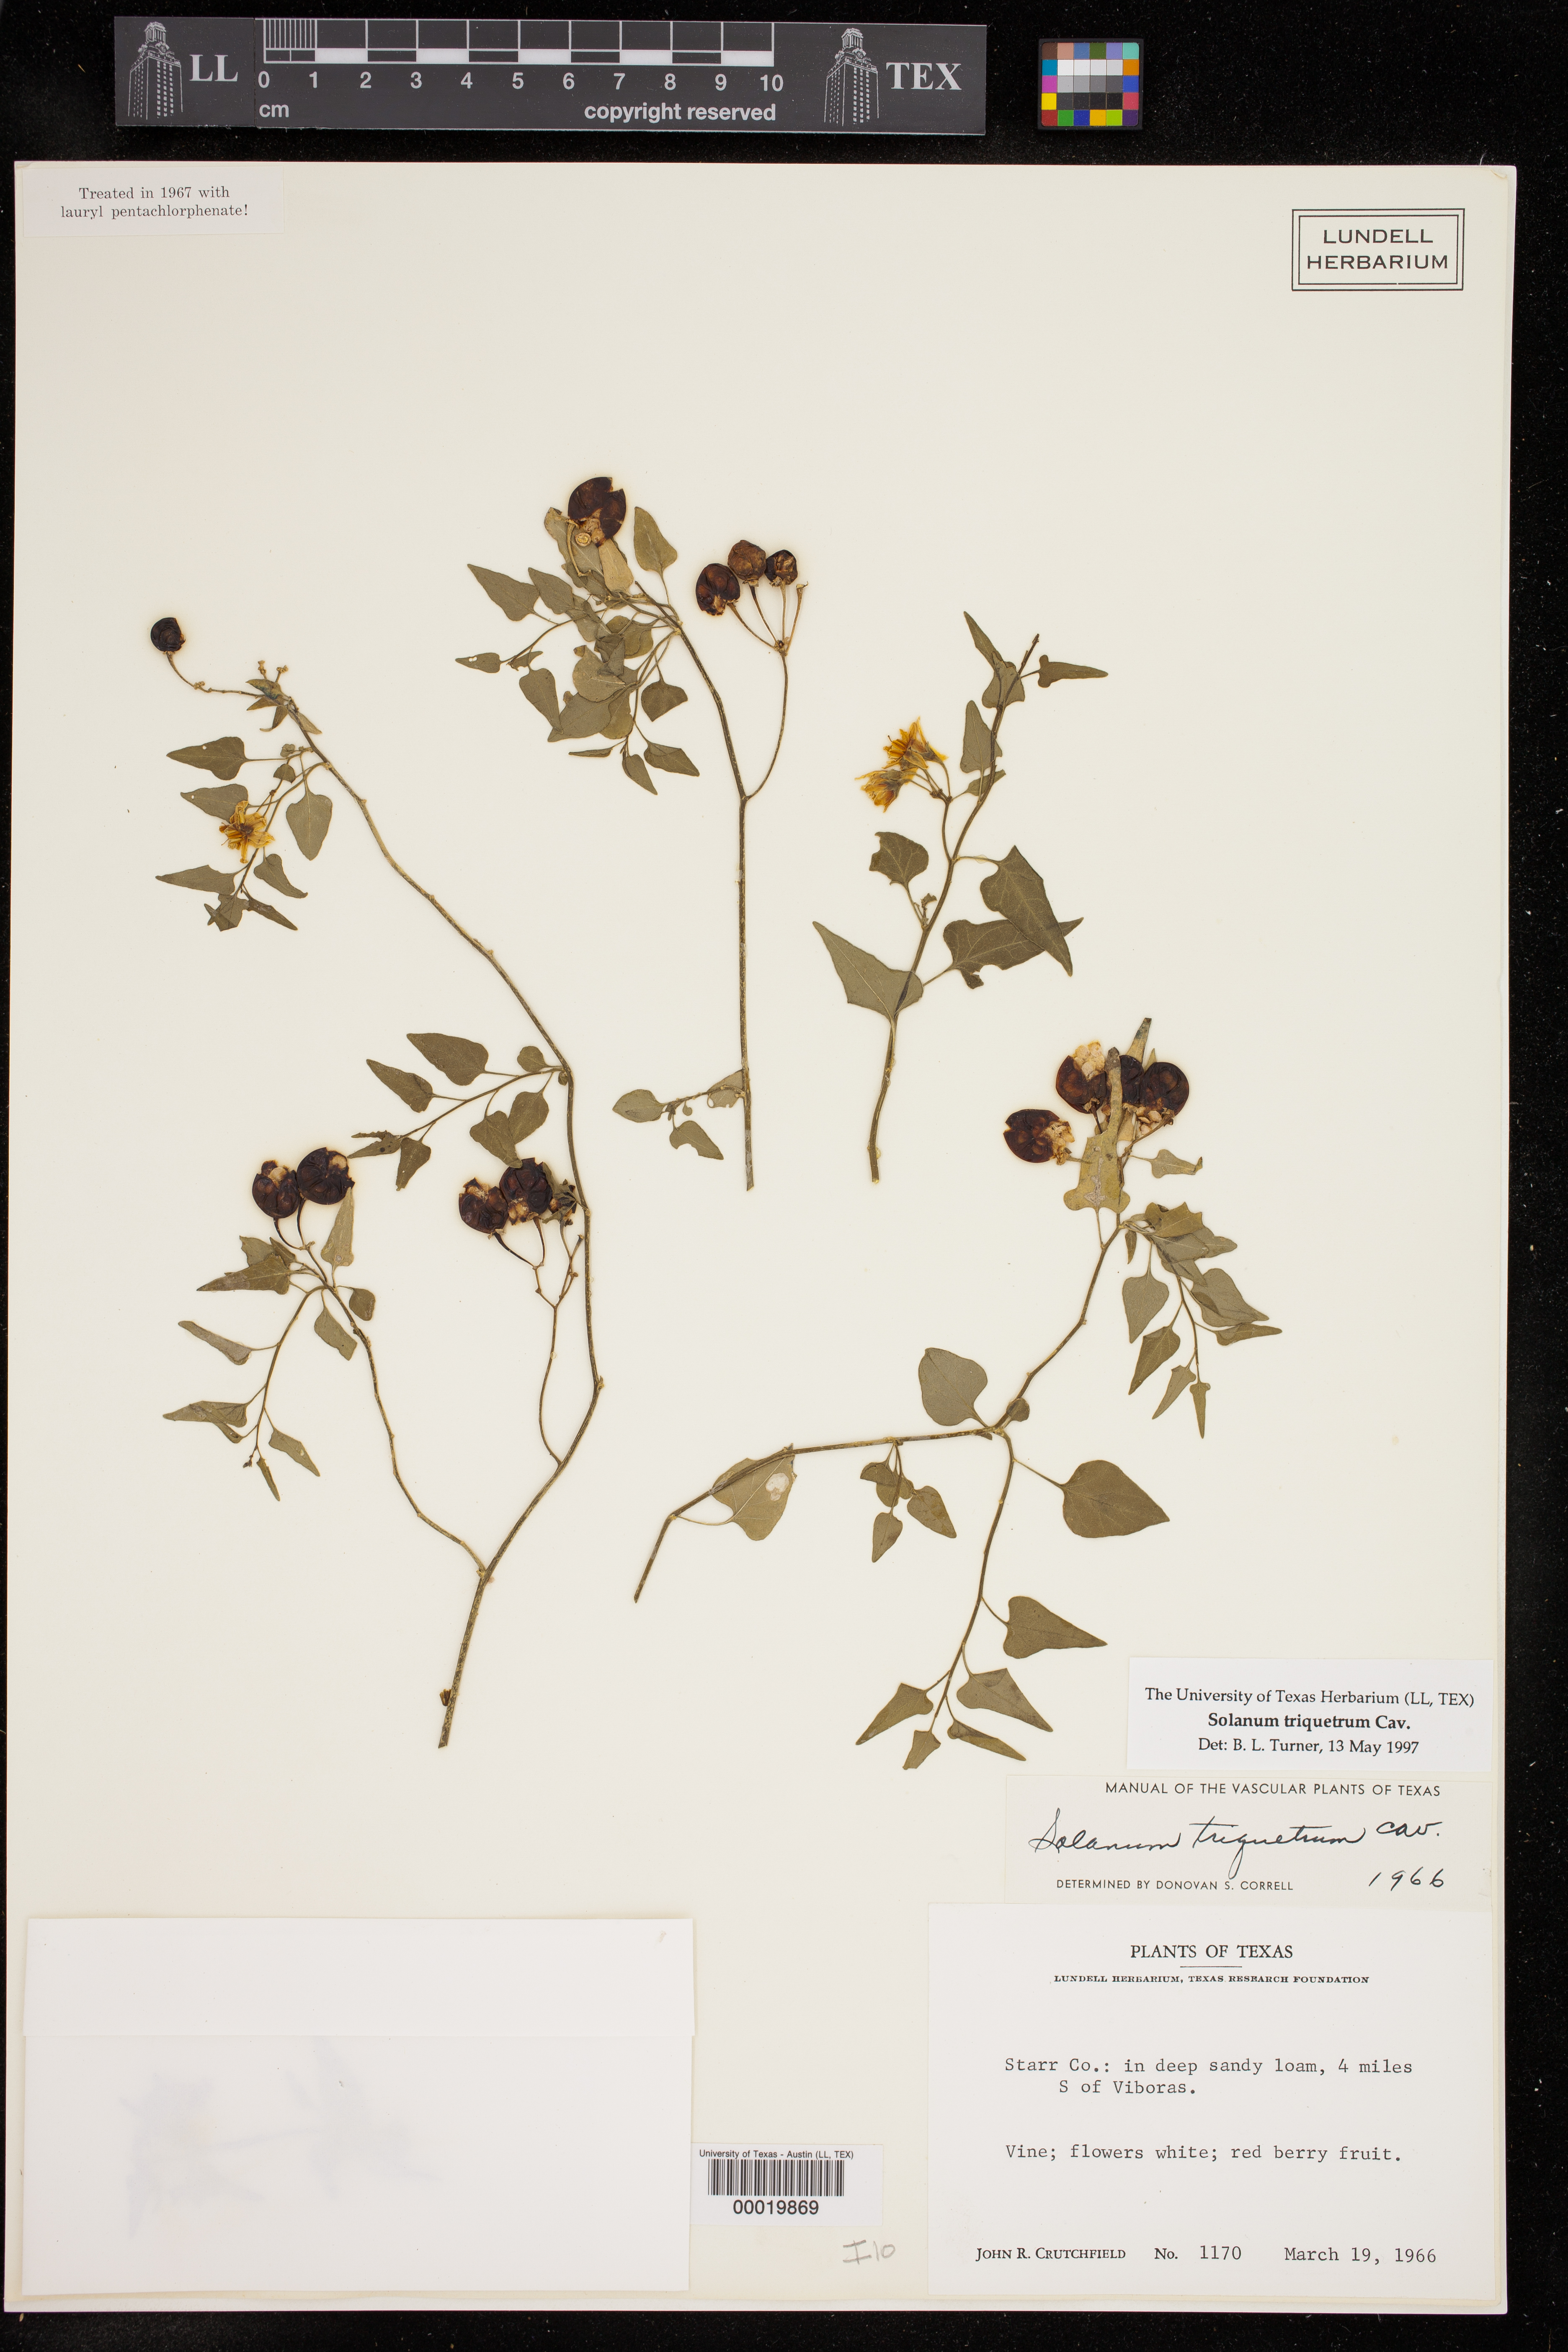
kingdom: Plantae
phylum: Tracheophyta
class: Magnoliopsida
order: Solanales
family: Solanaceae
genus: Solanum
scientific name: Solanum triquetrum
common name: Texas nightshade
